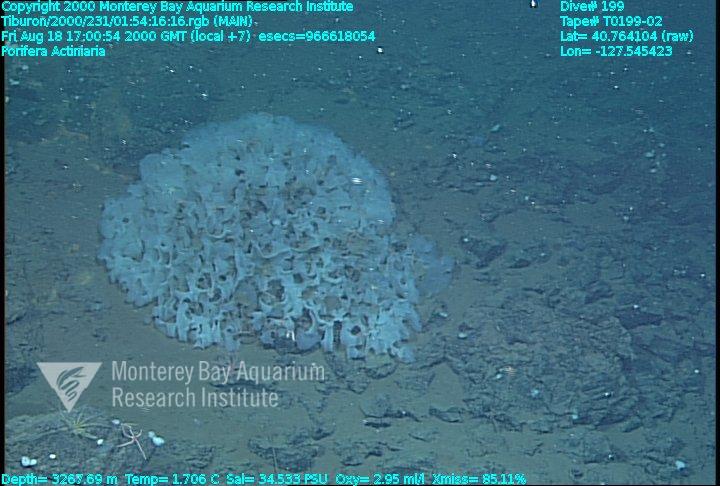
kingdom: Animalia
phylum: Porifera
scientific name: Porifera
